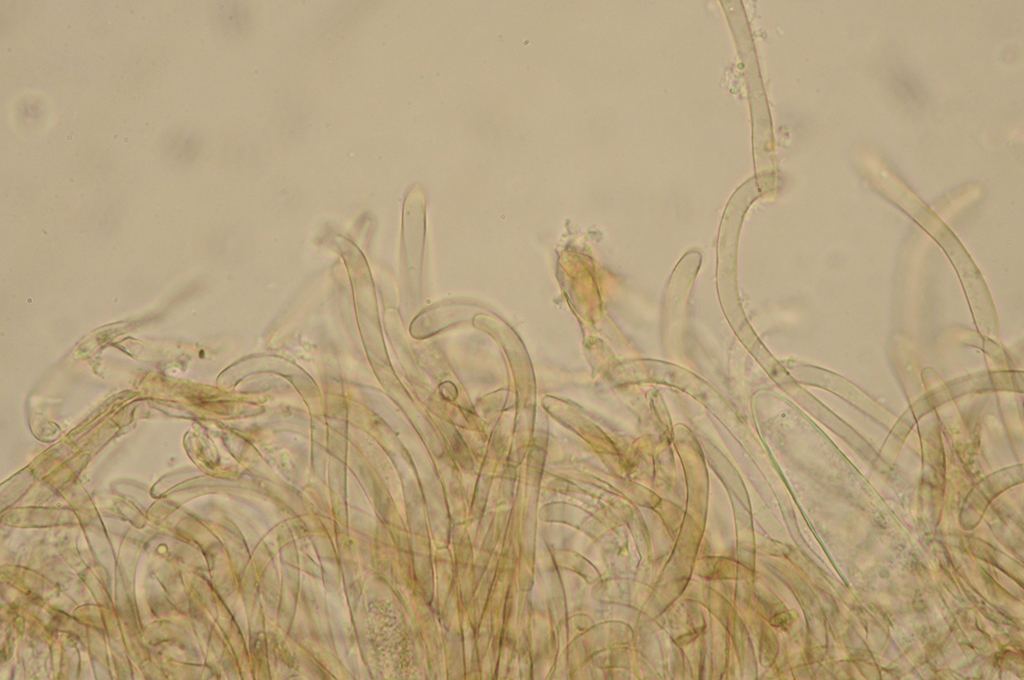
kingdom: Fungi
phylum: Ascomycota
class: Geoglossomycetes
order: Geoglossales
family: Geoglossaceae
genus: Geoglossum
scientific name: Geoglossum umbratile
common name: slank jordtunge
